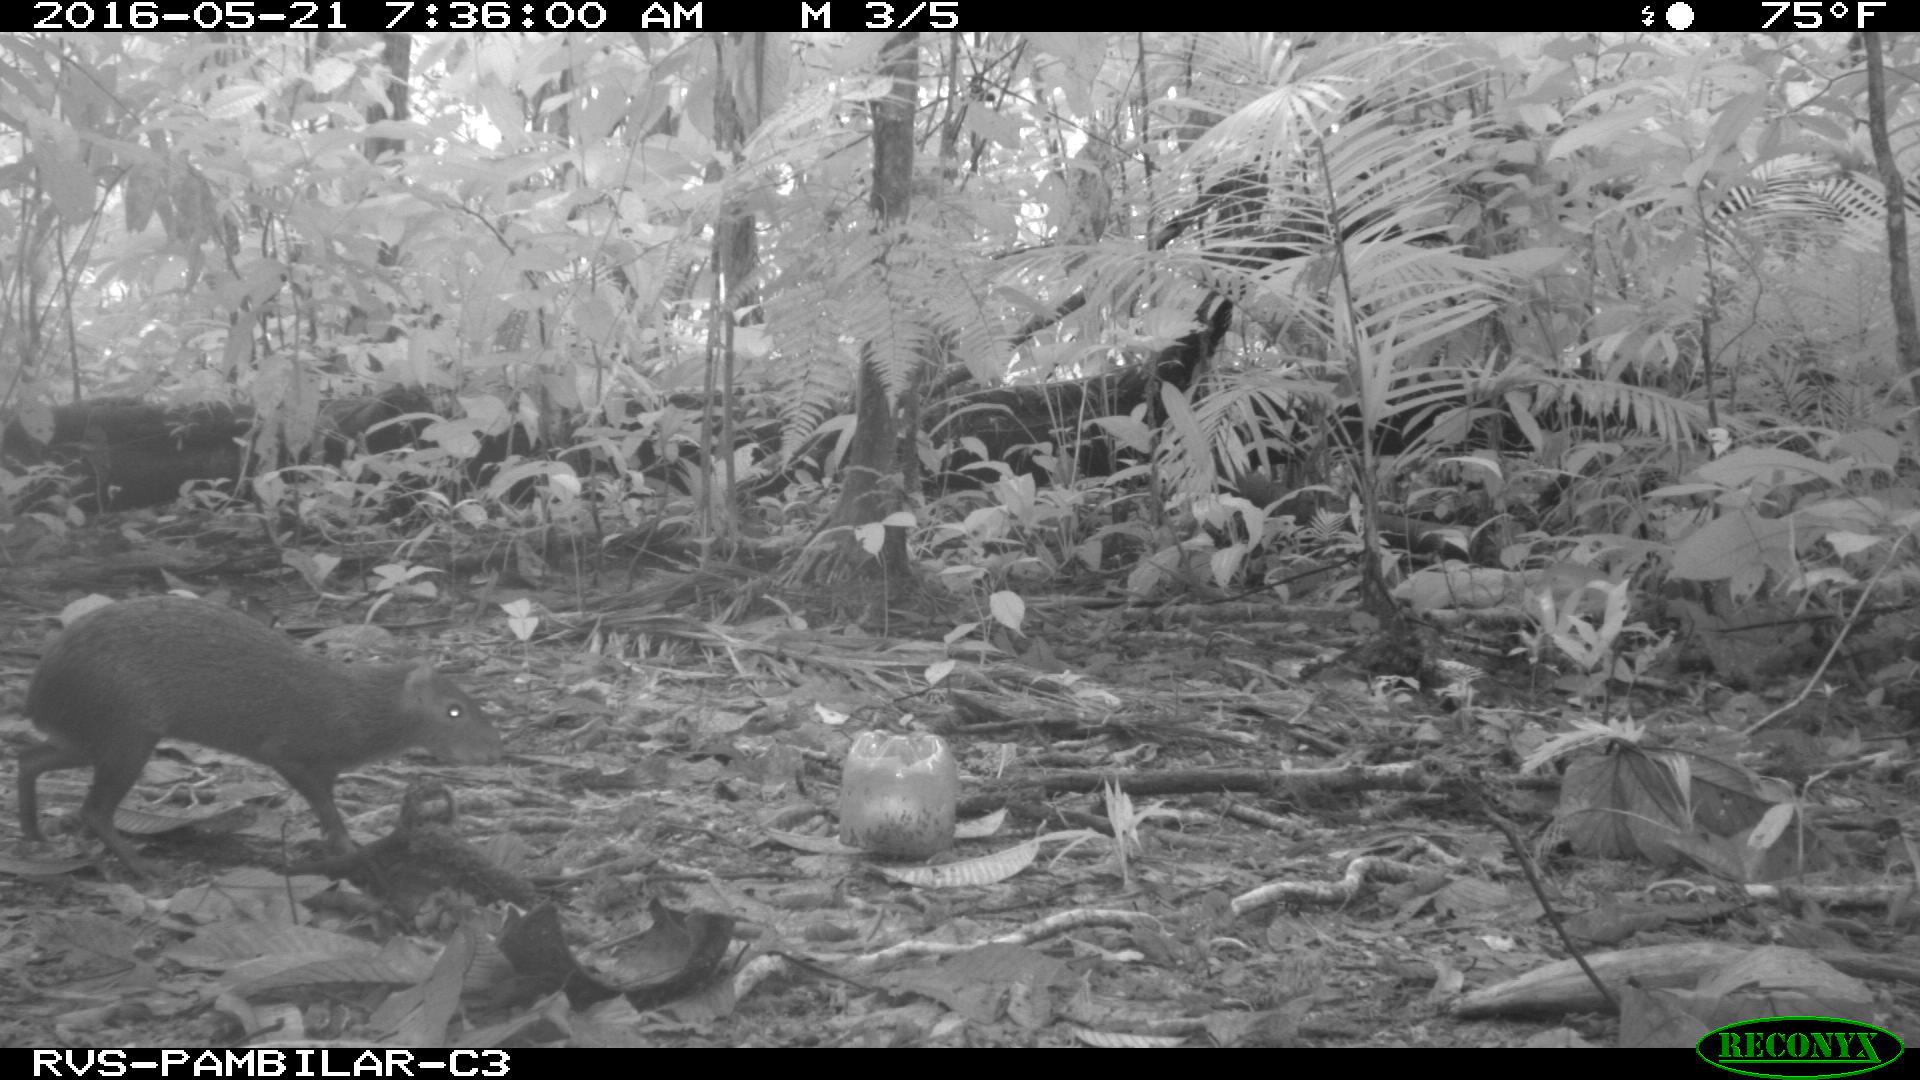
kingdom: Animalia
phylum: Chordata
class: Mammalia
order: Rodentia
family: Dasyproctidae
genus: Dasyprocta
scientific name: Dasyprocta punctata
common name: Central american agouti
